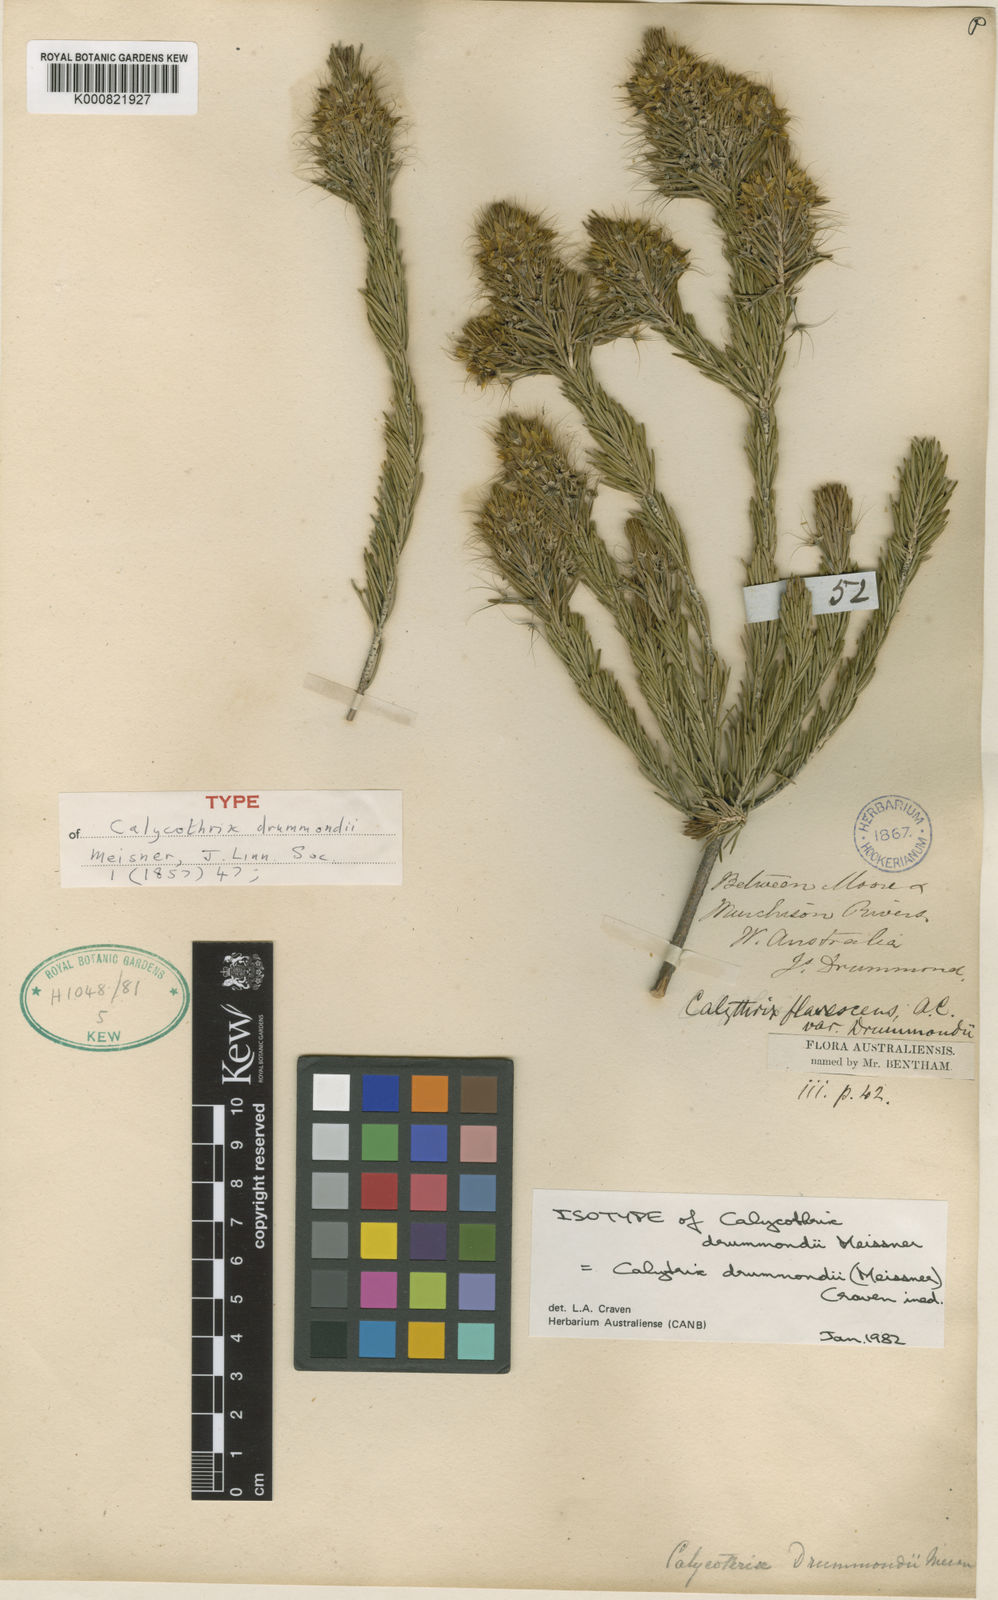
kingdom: Plantae
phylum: Tracheophyta
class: Magnoliopsida
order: Myrtales
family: Myrtaceae
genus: Calytrix
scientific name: Calytrix drummondii
